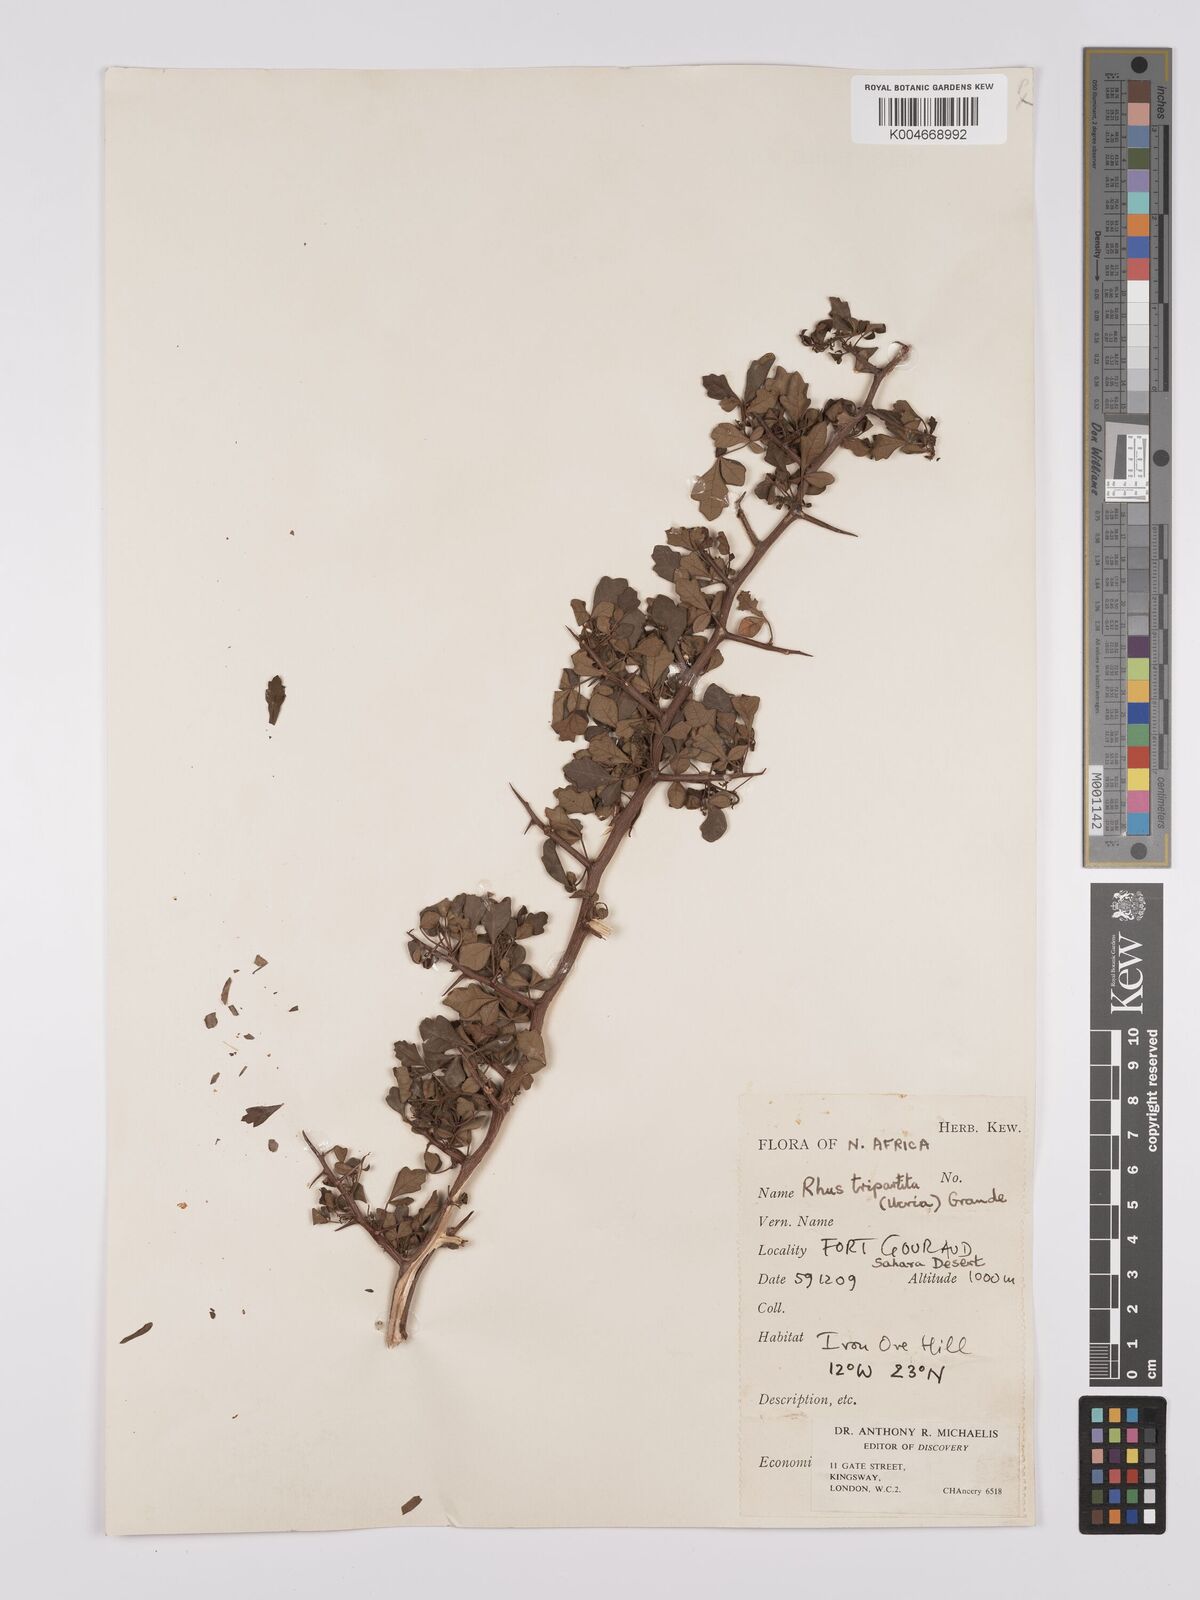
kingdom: Plantae
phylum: Tracheophyta
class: Magnoliopsida
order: Sapindales
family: Anacardiaceae
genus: Rhus
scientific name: Rhus
